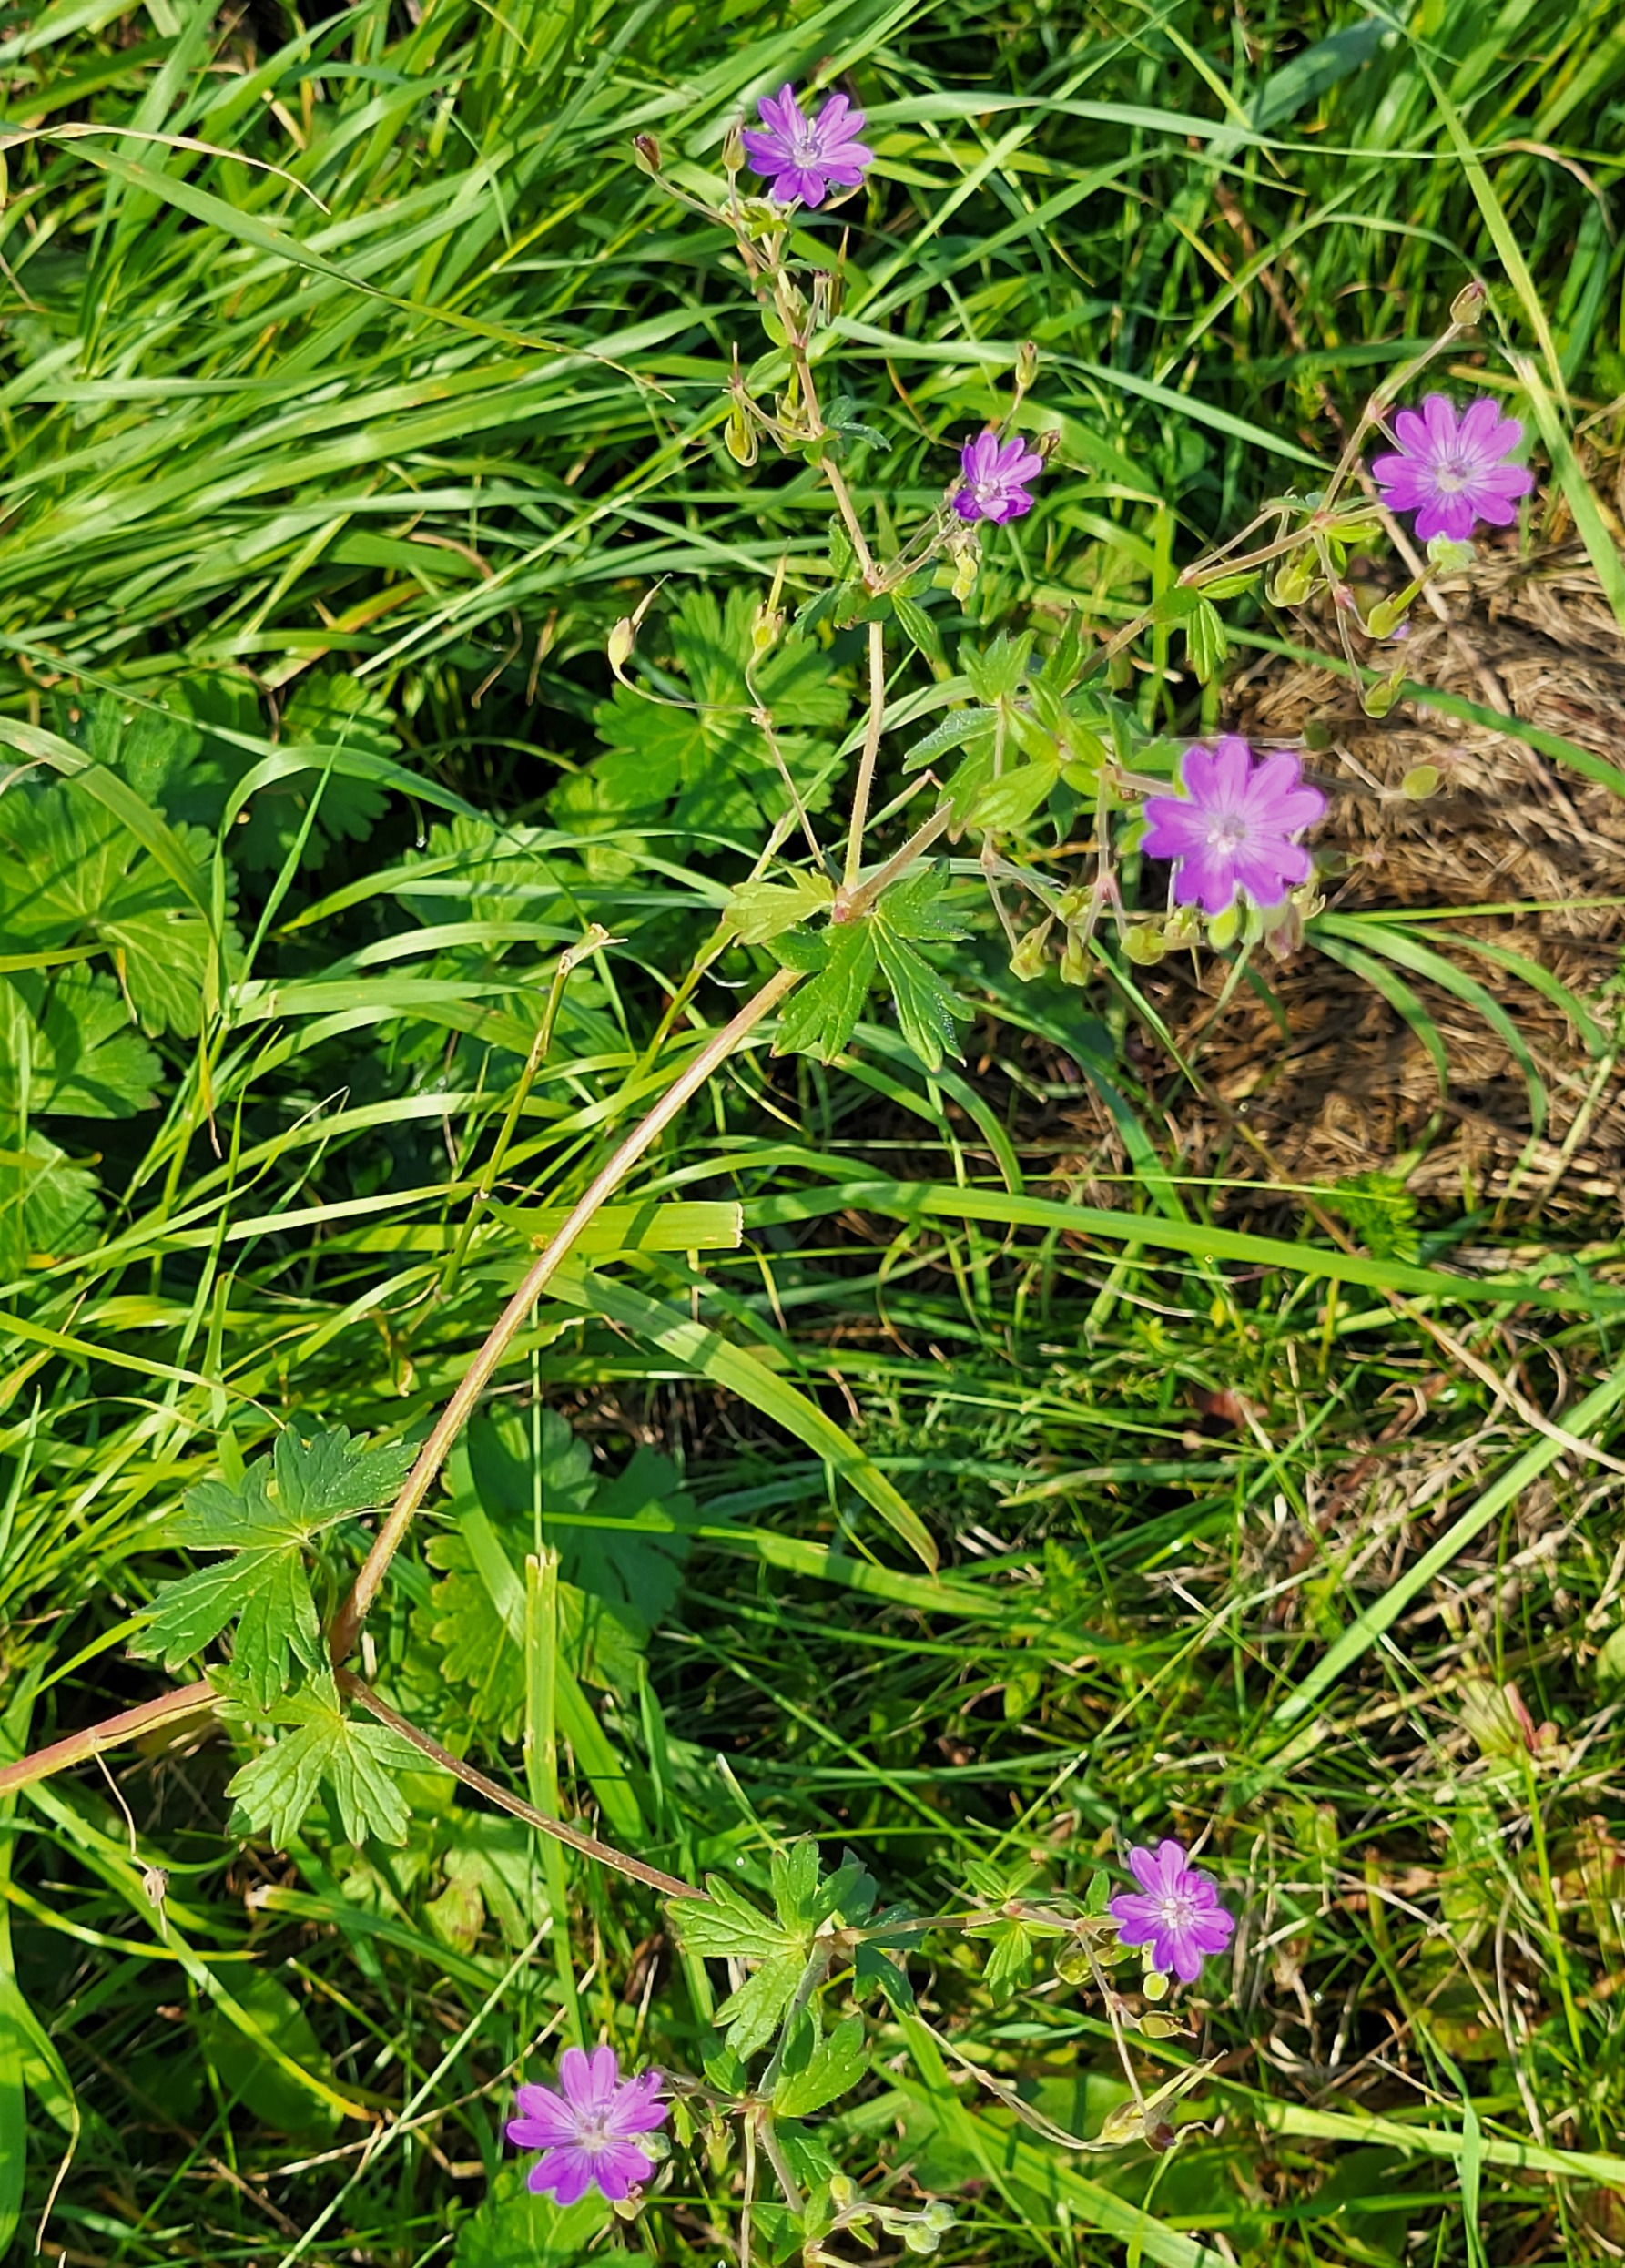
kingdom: Plantae
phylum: Tracheophyta
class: Magnoliopsida
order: Geraniales
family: Geraniaceae
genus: Geranium
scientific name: Geranium pyrenaicum
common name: Pyrenæisk storkenæb
